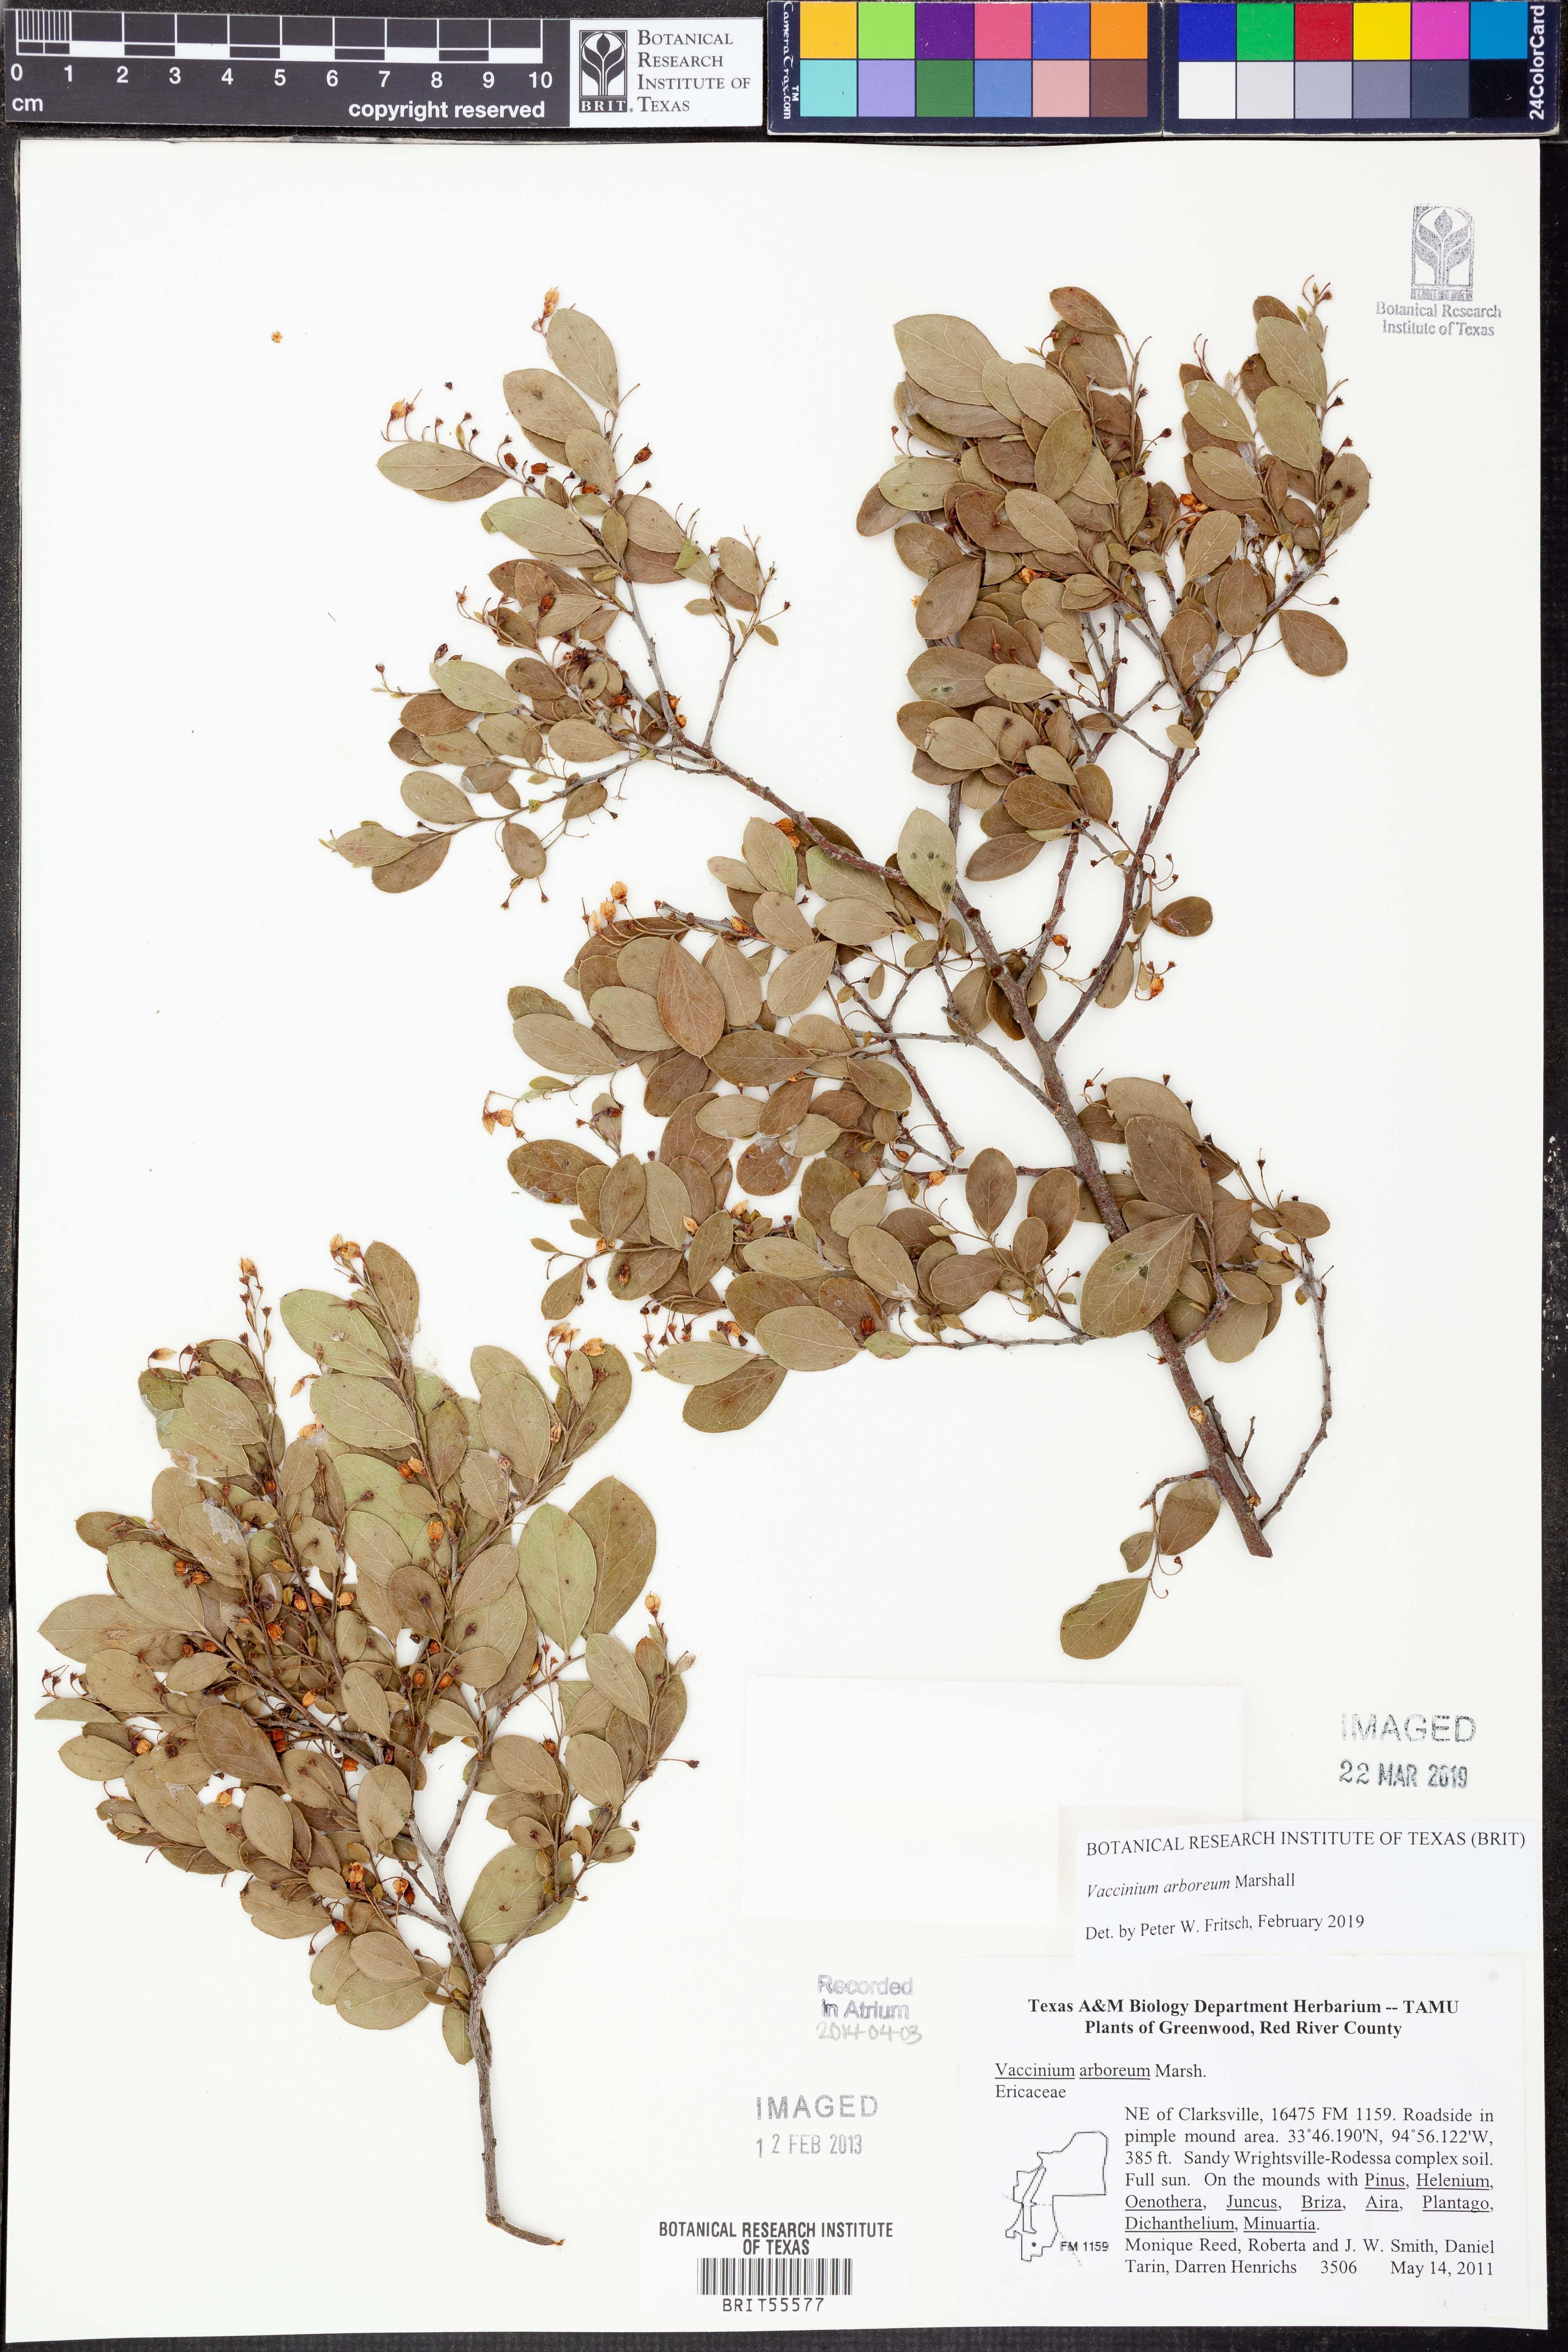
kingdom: Plantae
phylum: Tracheophyta
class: Magnoliopsida
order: Ericales
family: Ericaceae
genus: Vaccinium
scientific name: Vaccinium arboreum
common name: Farkleberry
